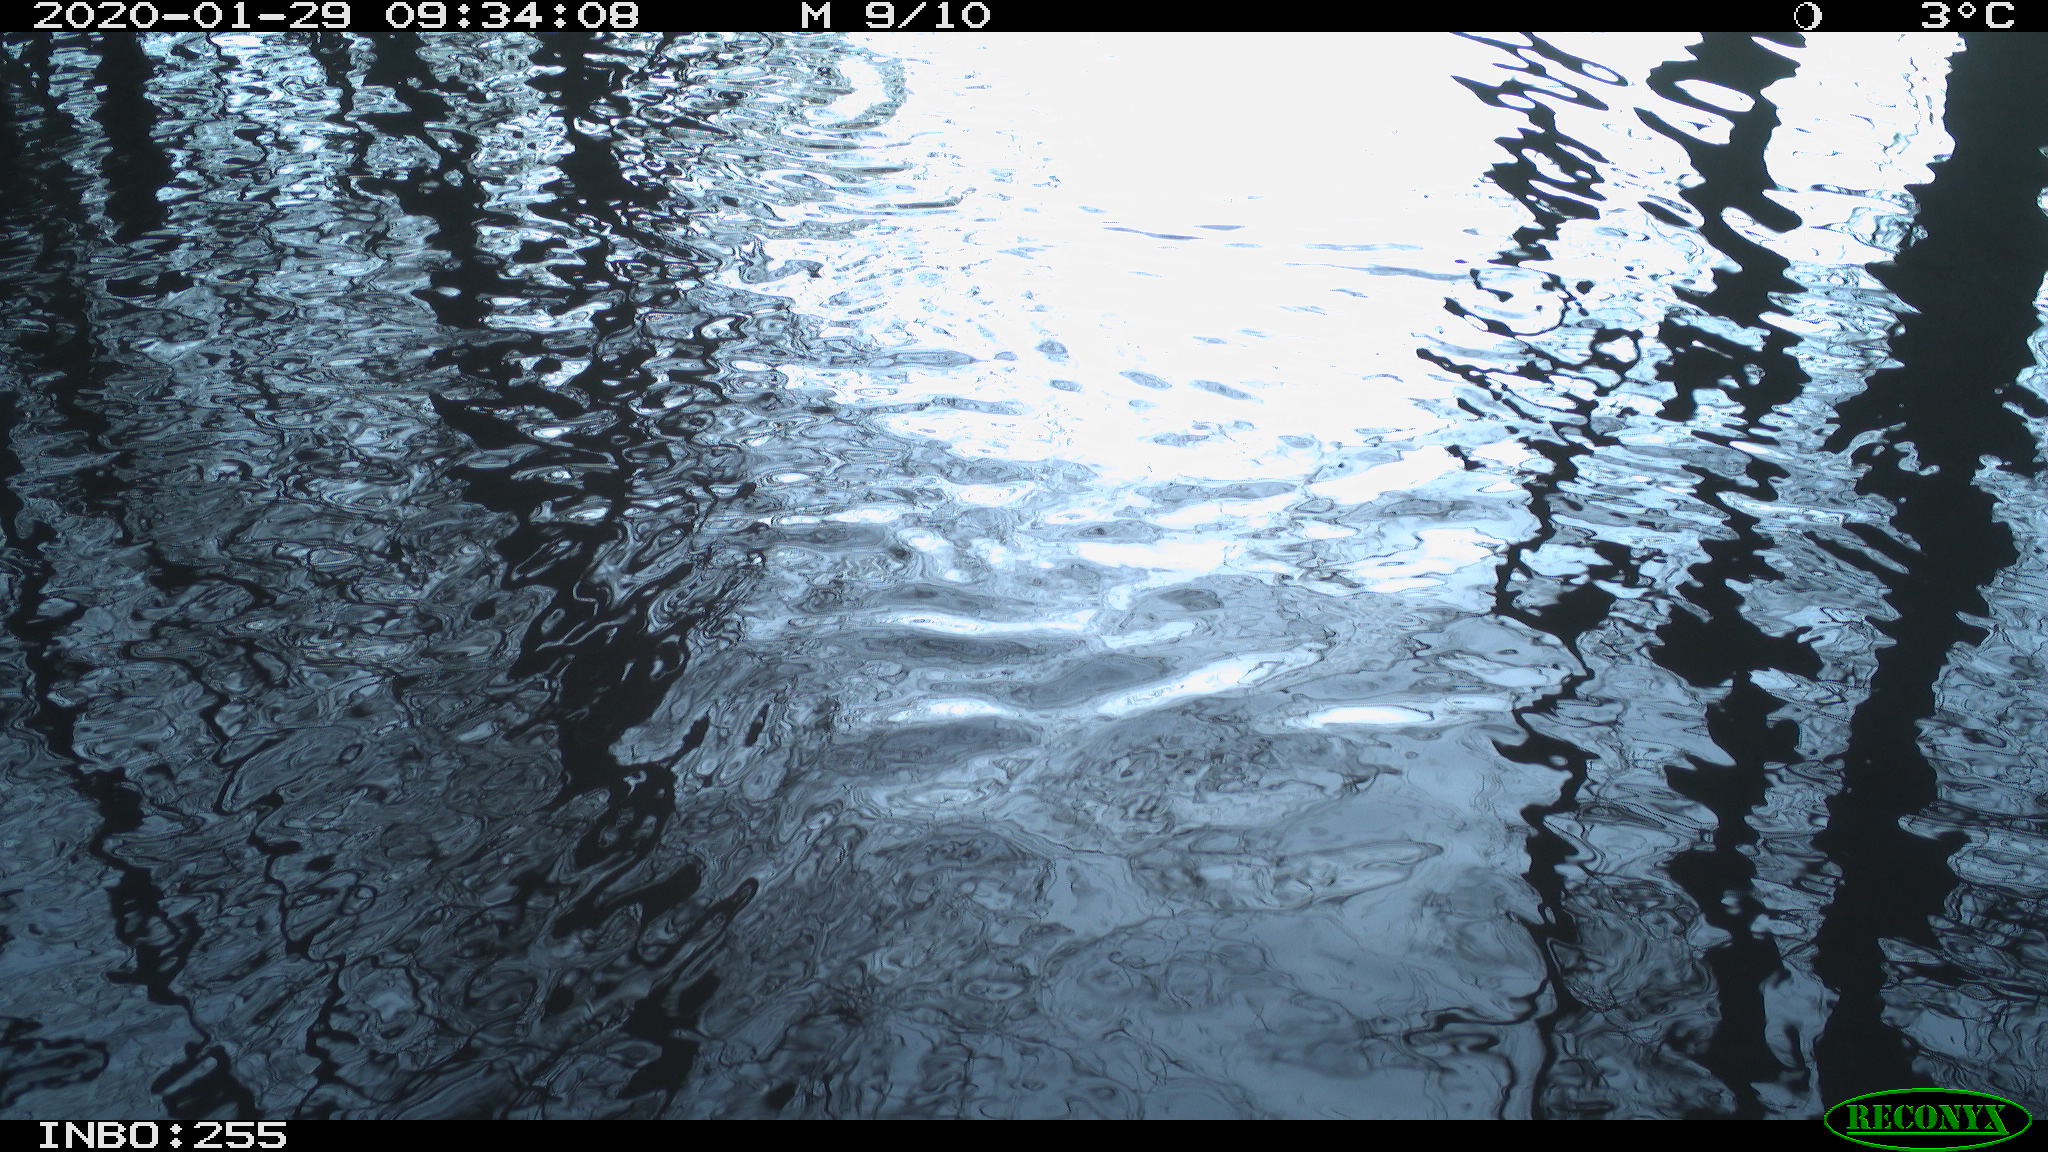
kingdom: Animalia
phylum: Chordata
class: Aves
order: Gruiformes
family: Rallidae
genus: Gallinula
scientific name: Gallinula chloropus
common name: Common moorhen
